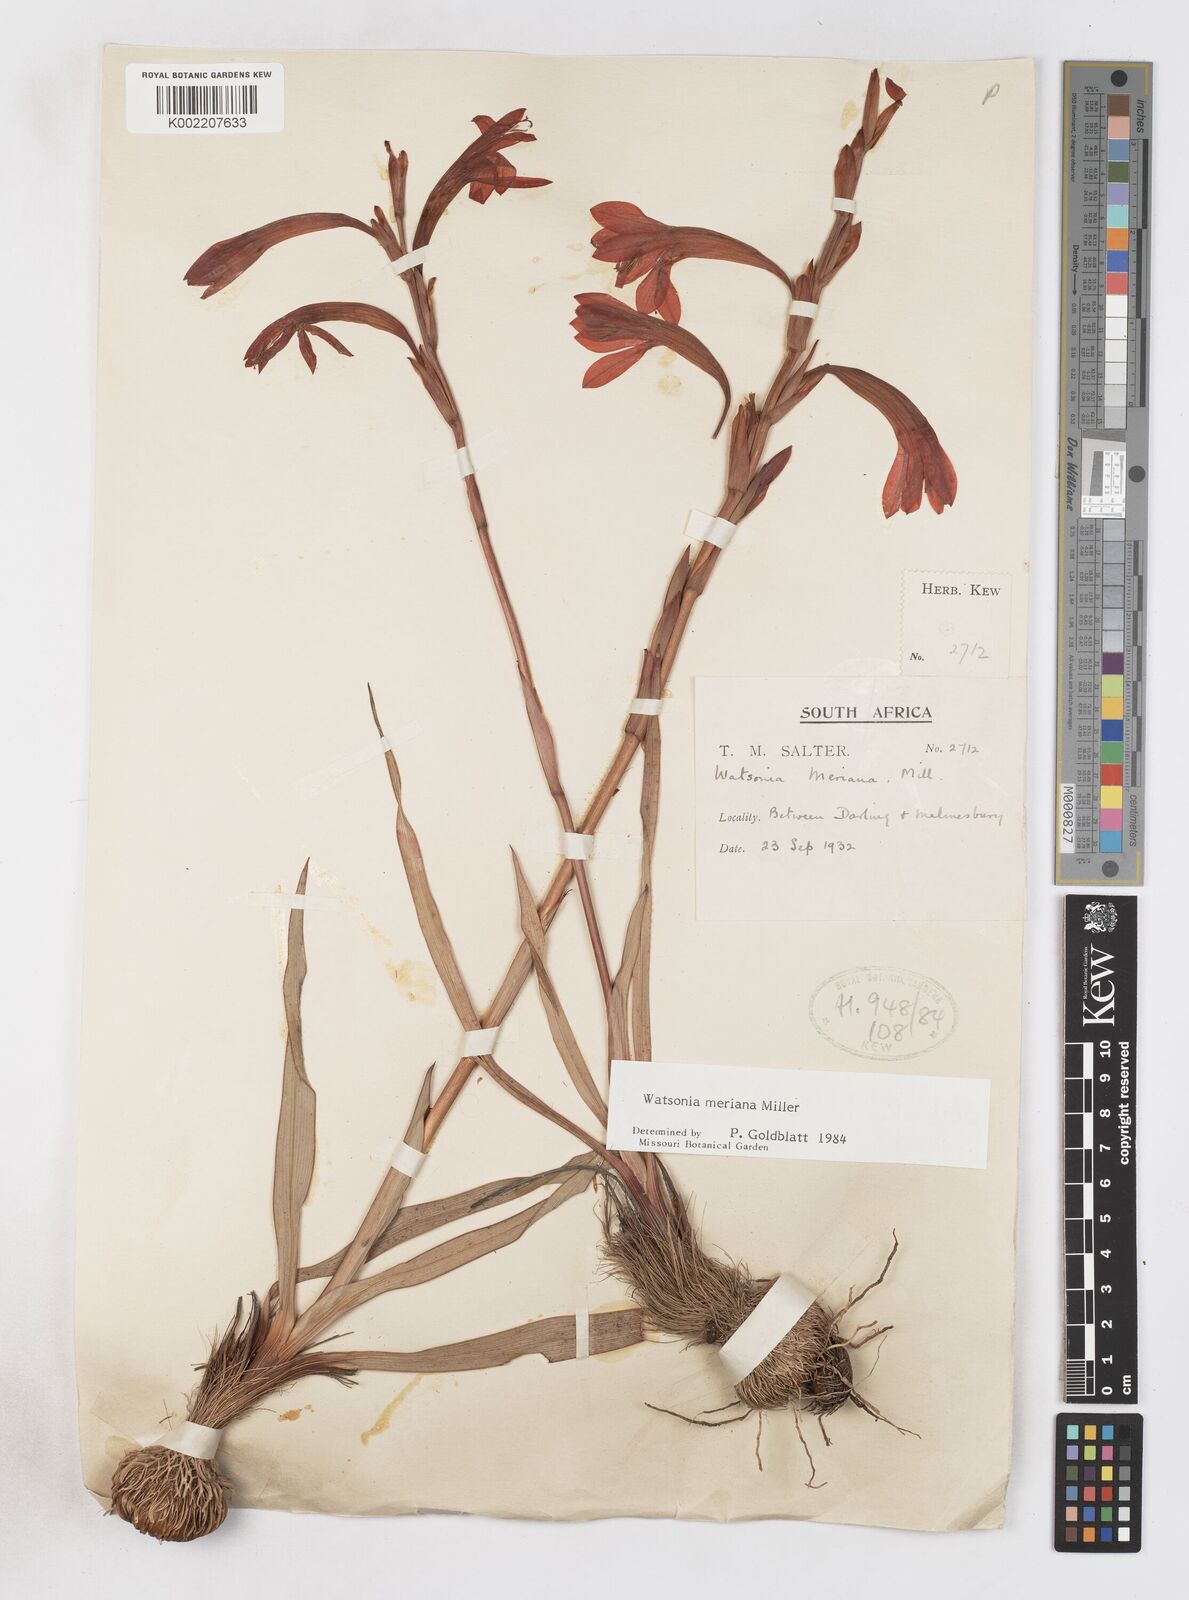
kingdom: Plantae
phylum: Tracheophyta
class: Liliopsida
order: Asparagales
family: Iridaceae
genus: Watsonia
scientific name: Watsonia meriana
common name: Bulbil bugle-lily
